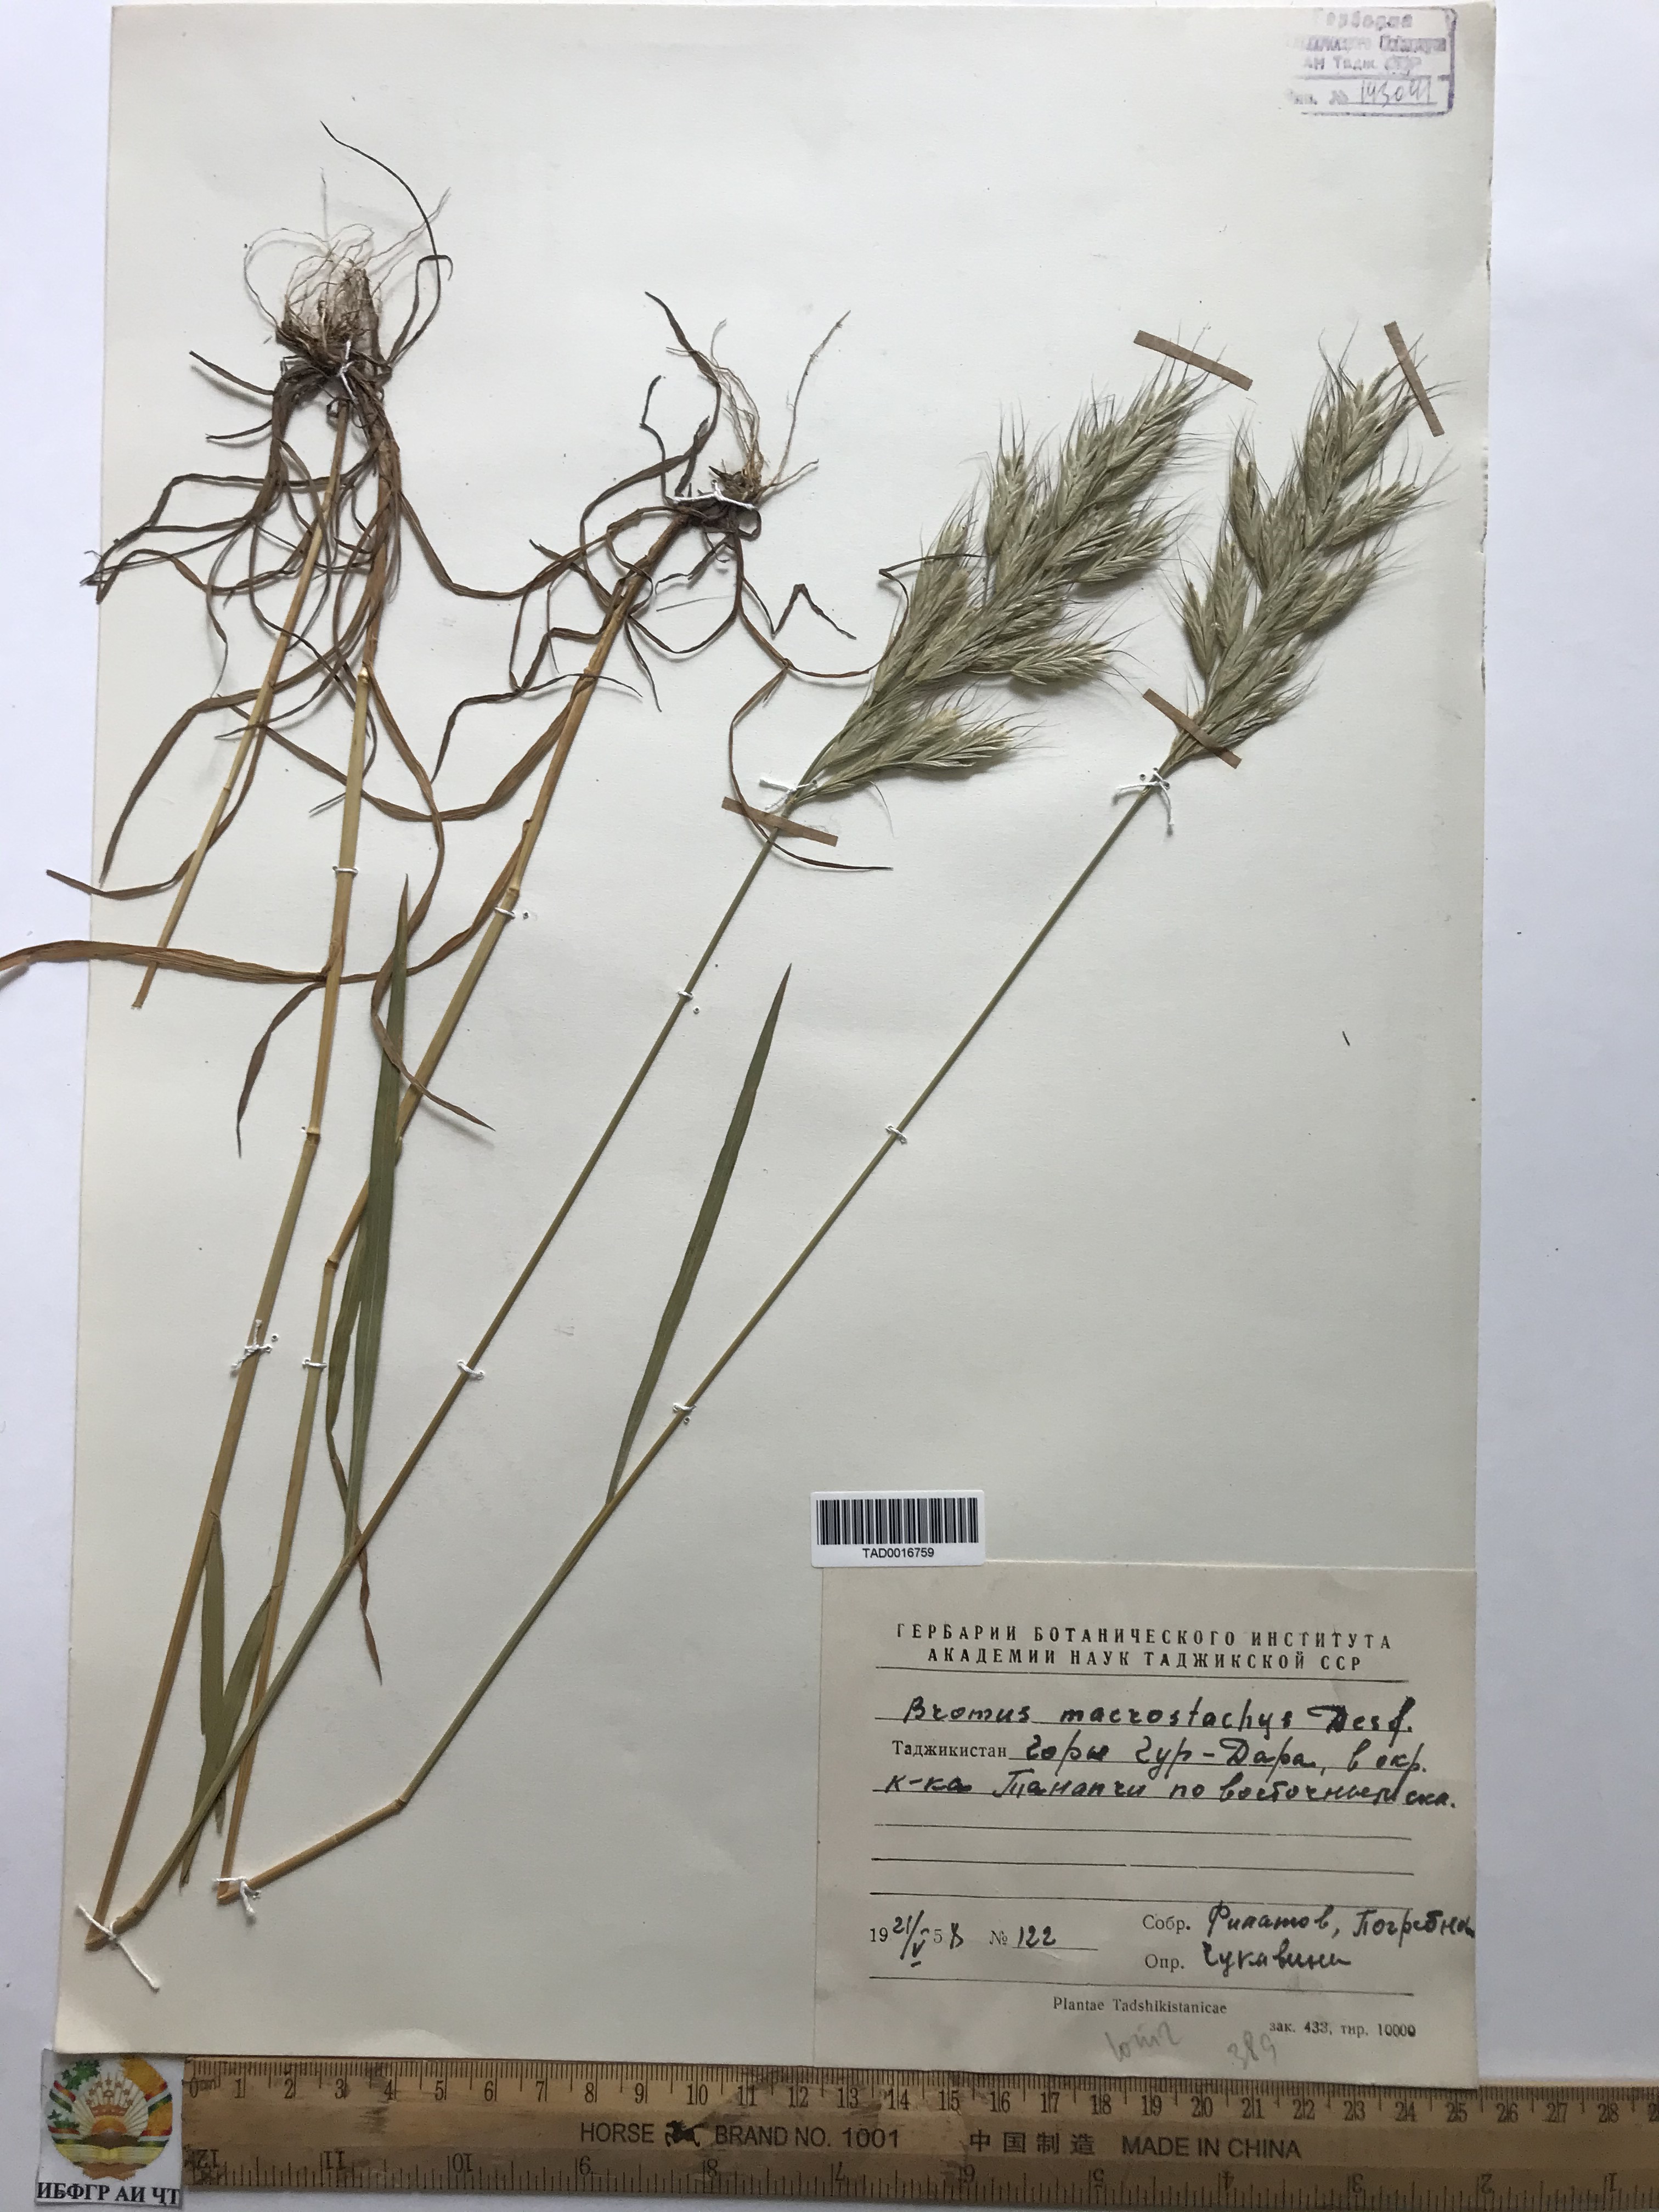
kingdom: Plantae
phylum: Tracheophyta
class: Liliopsida
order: Poales
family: Poaceae
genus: Bromus
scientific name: Bromus lanceolatus
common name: Mediterranean brome
